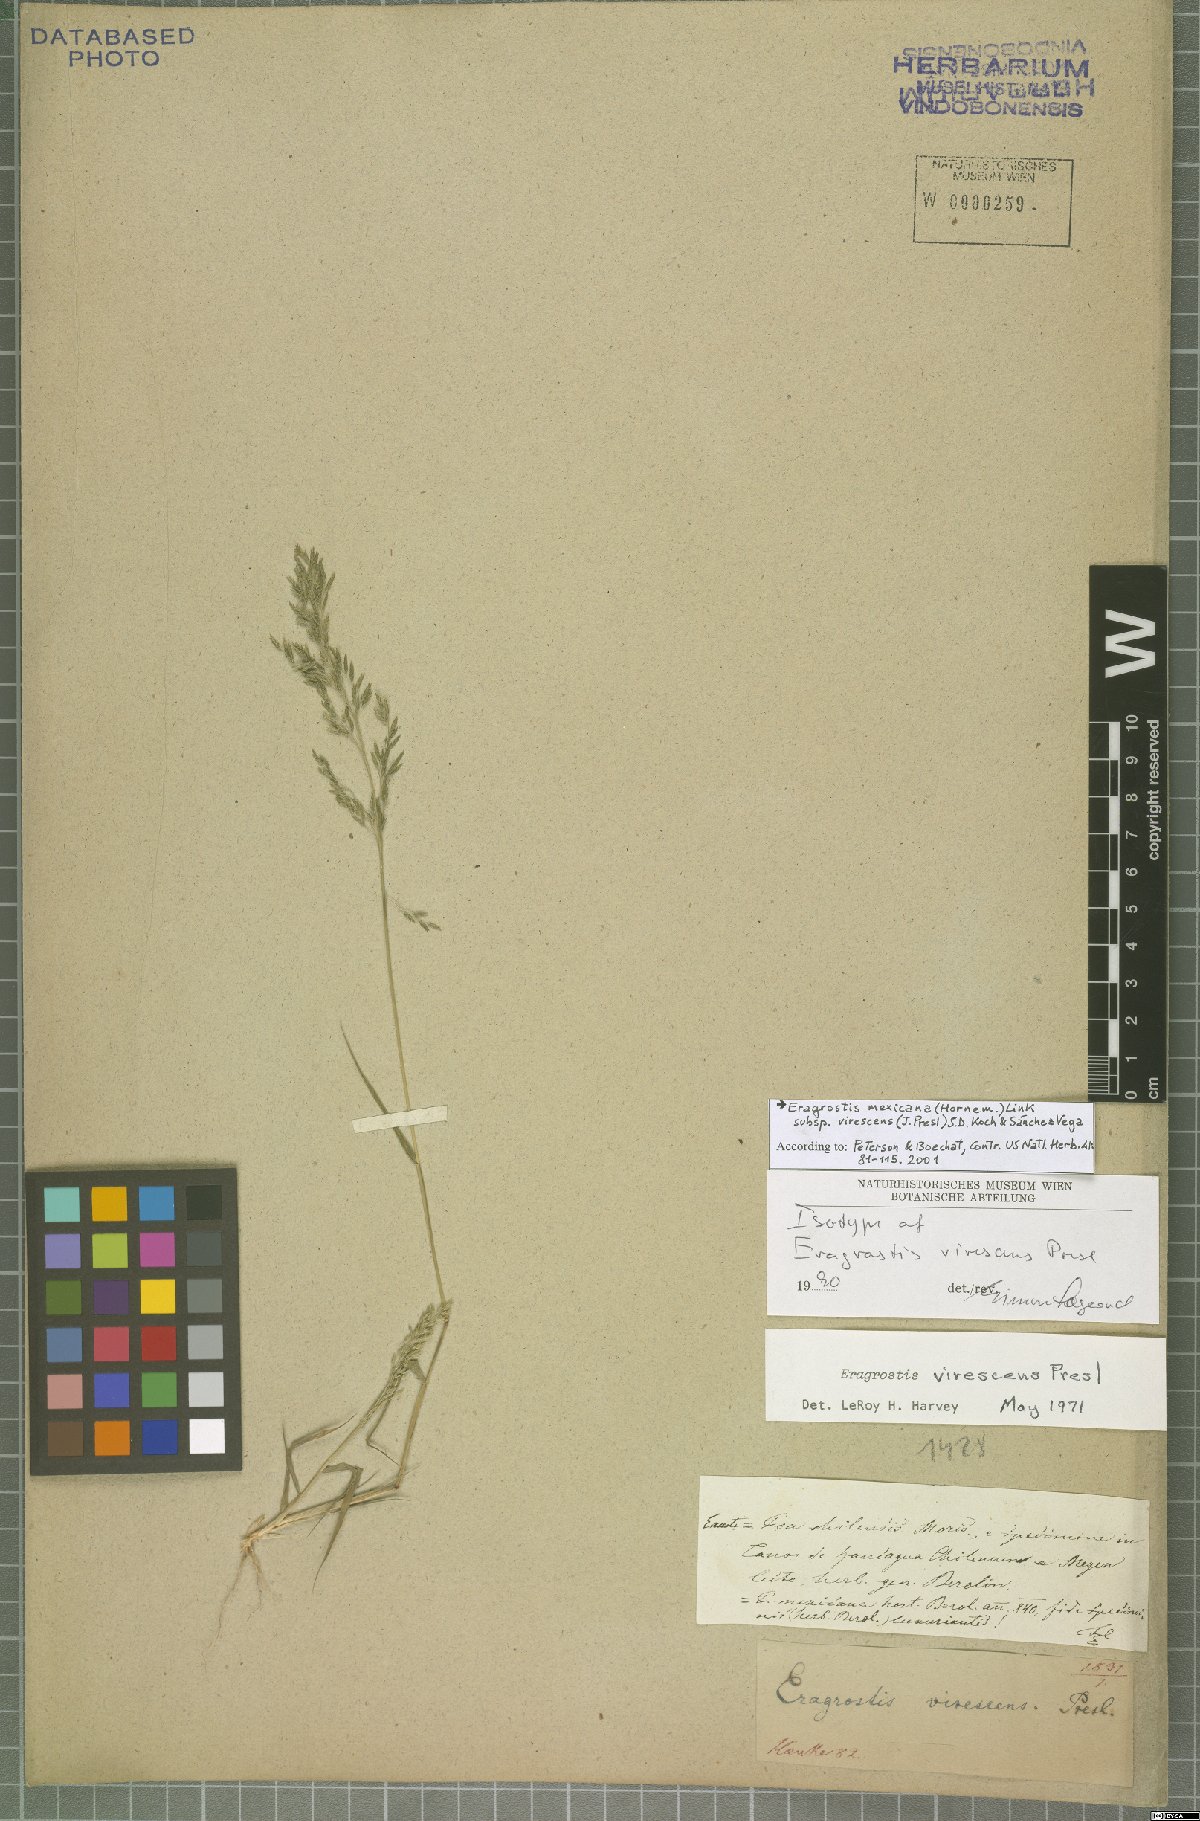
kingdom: Plantae
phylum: Tracheophyta
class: Liliopsida
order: Poales
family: Poaceae
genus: Eragrostis
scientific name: Eragrostis virescens
